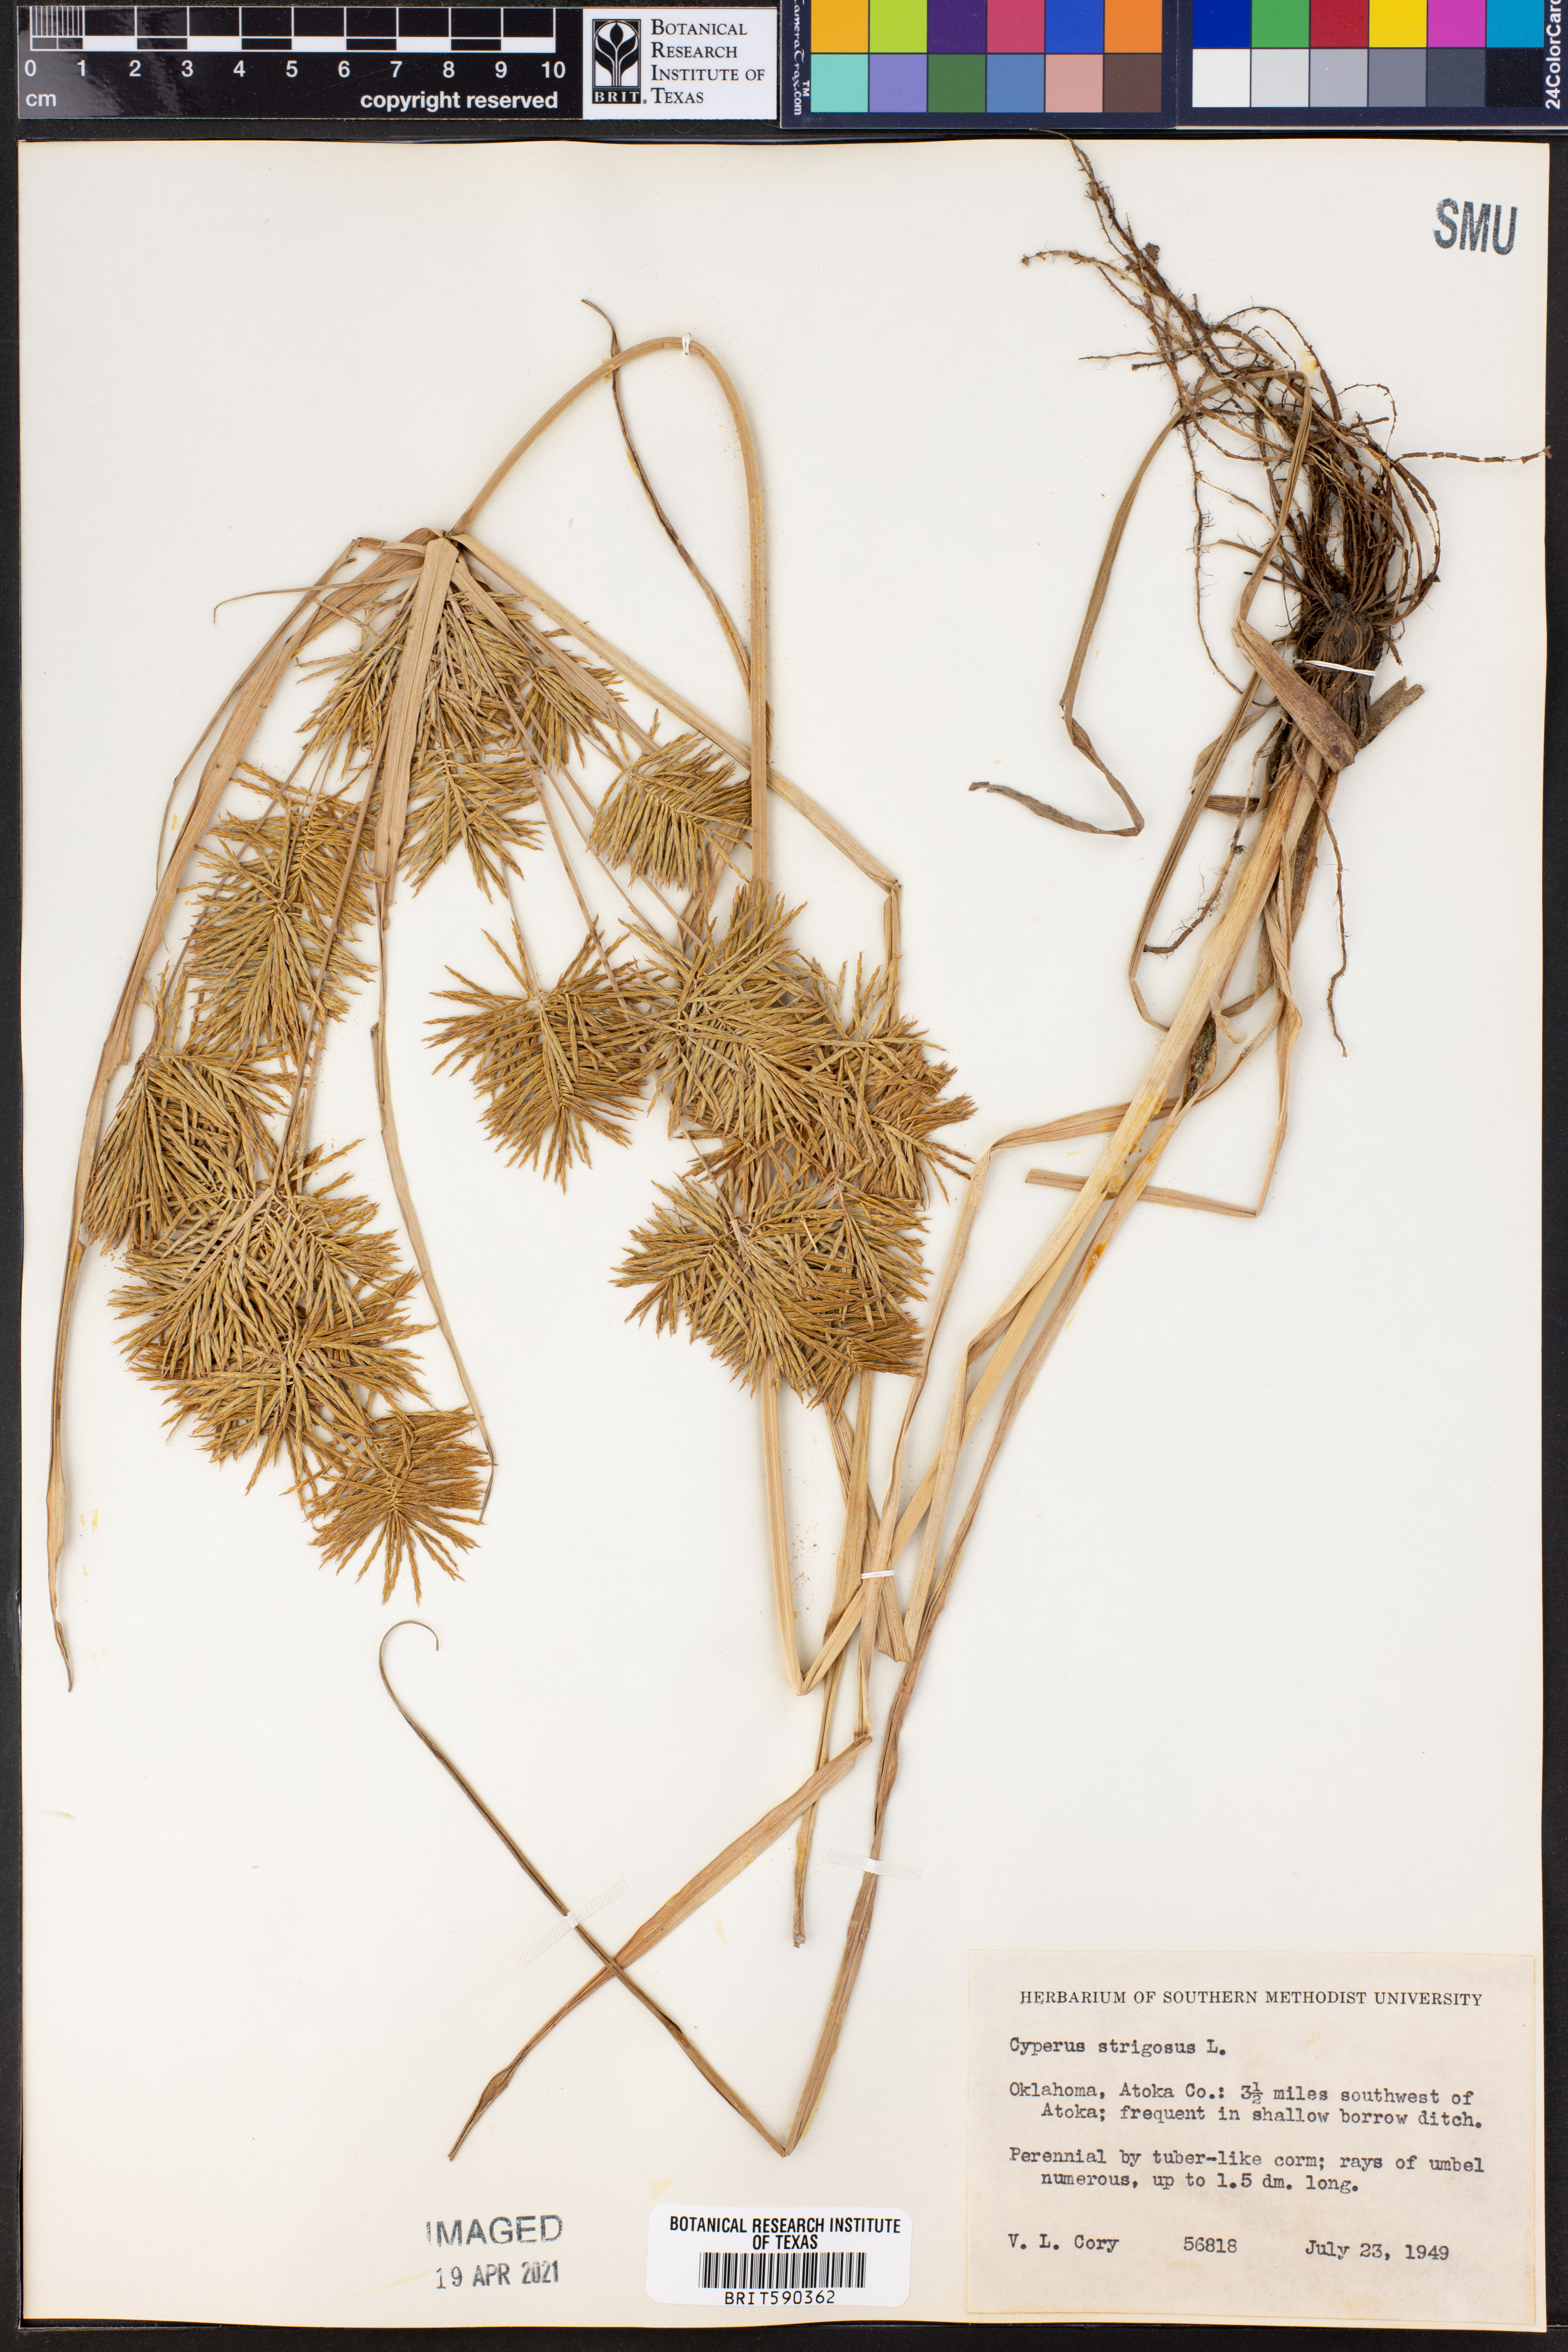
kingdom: Plantae
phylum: Tracheophyta
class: Liliopsida
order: Poales
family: Cyperaceae
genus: Cyperus
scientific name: Cyperus strigosus
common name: False nutsedge
